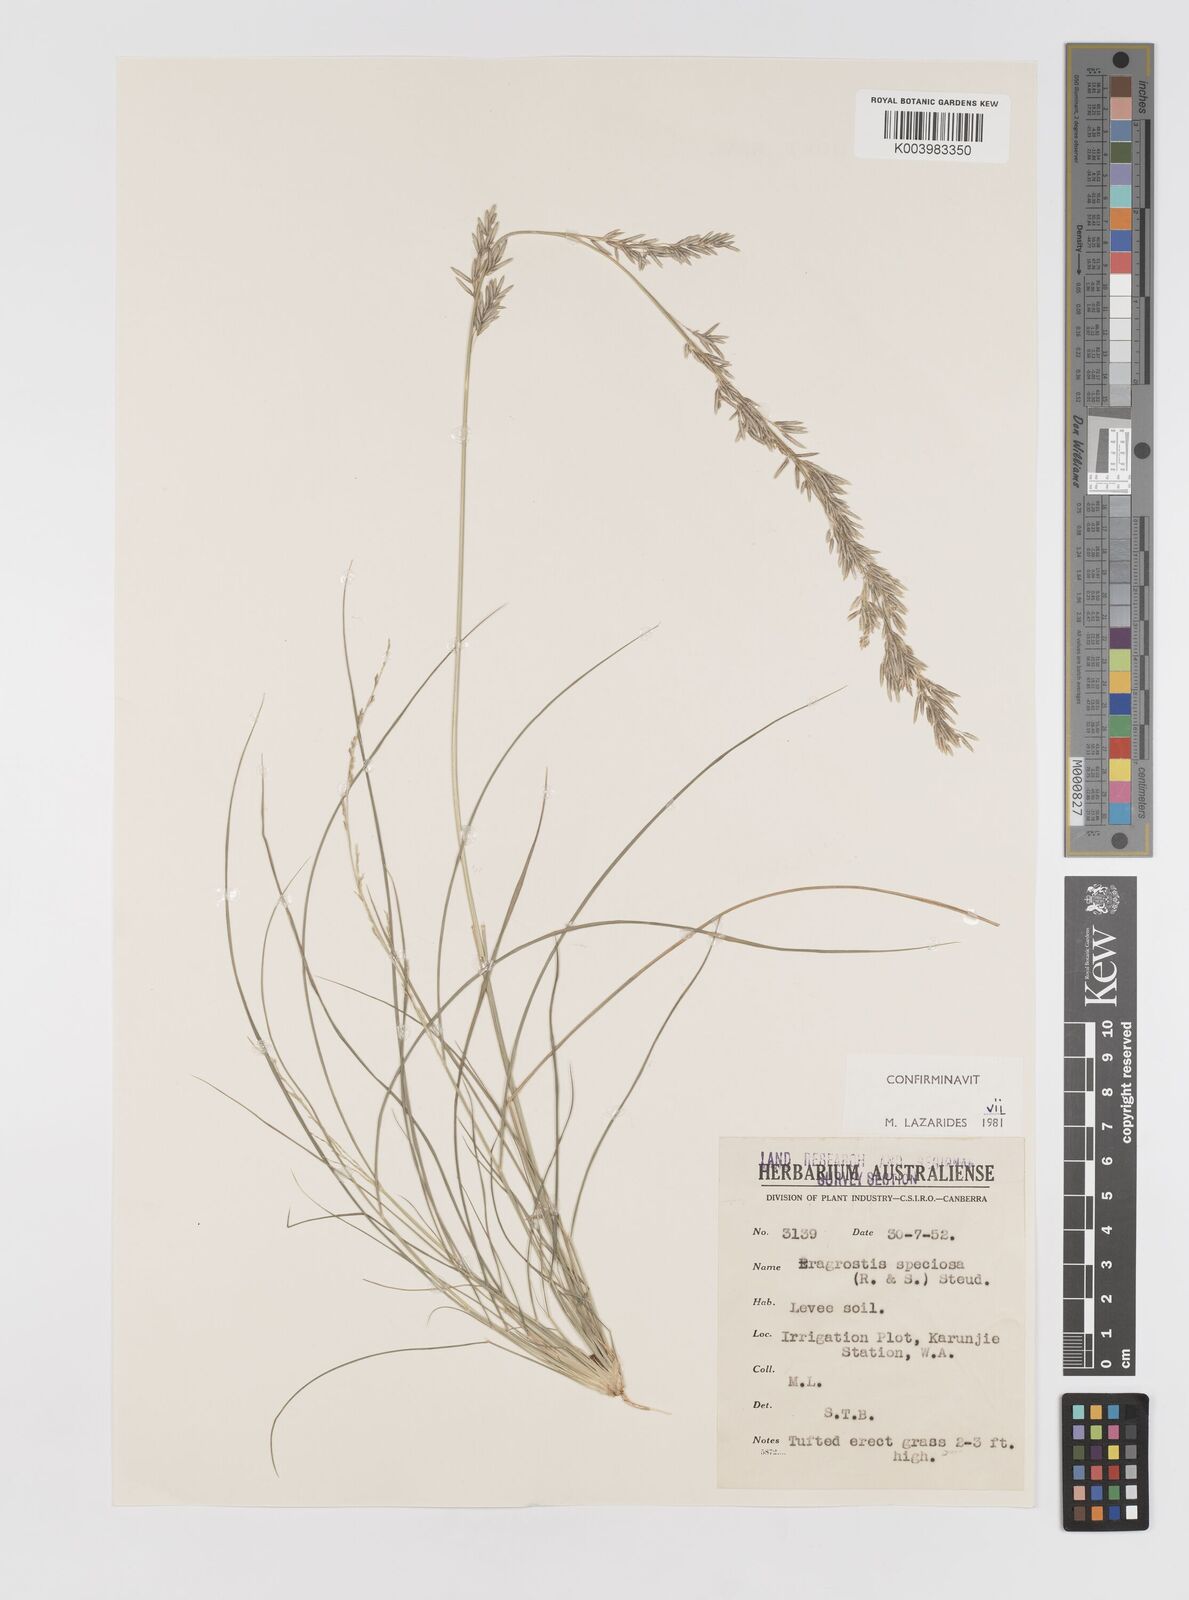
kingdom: Plantae
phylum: Tracheophyta
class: Liliopsida
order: Poales
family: Poaceae
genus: Eragrostis
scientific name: Eragrostis speciosa
